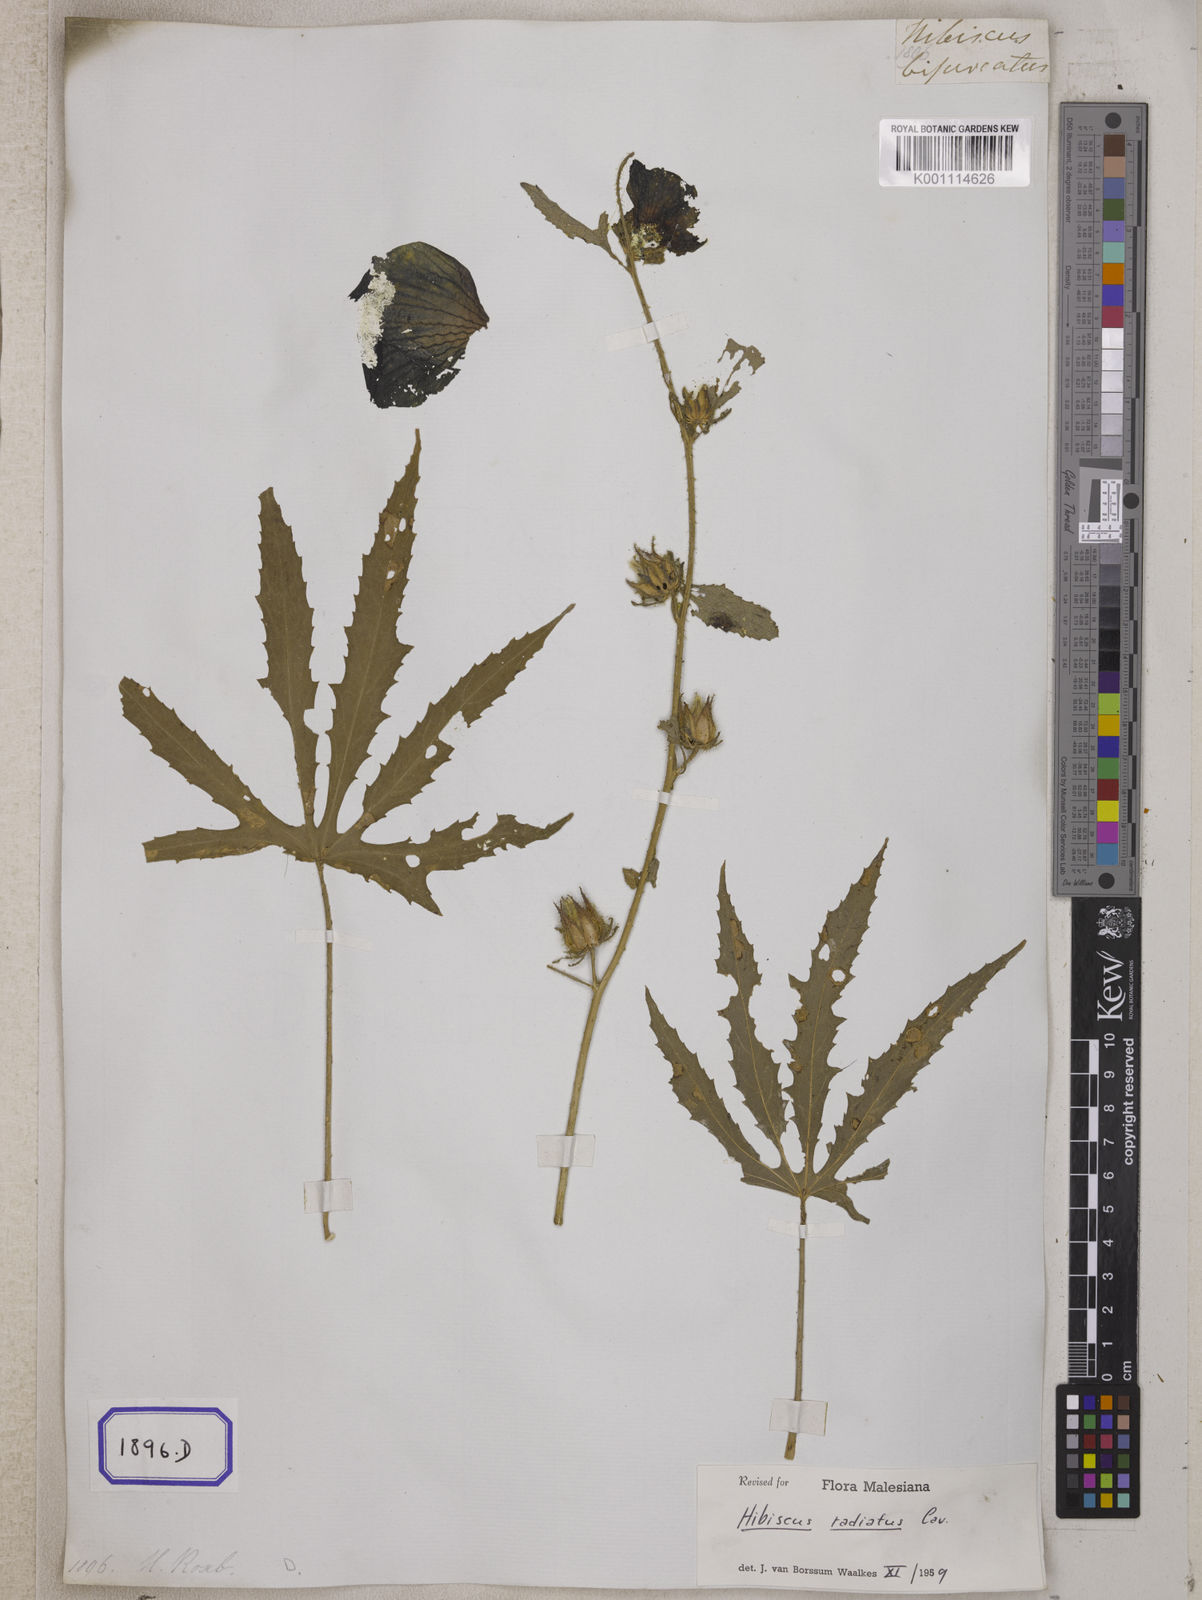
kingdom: Plantae
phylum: Tracheophyta
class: Magnoliopsida
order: Malvales
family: Malvaceae
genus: Hibiscus
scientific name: Hibiscus
